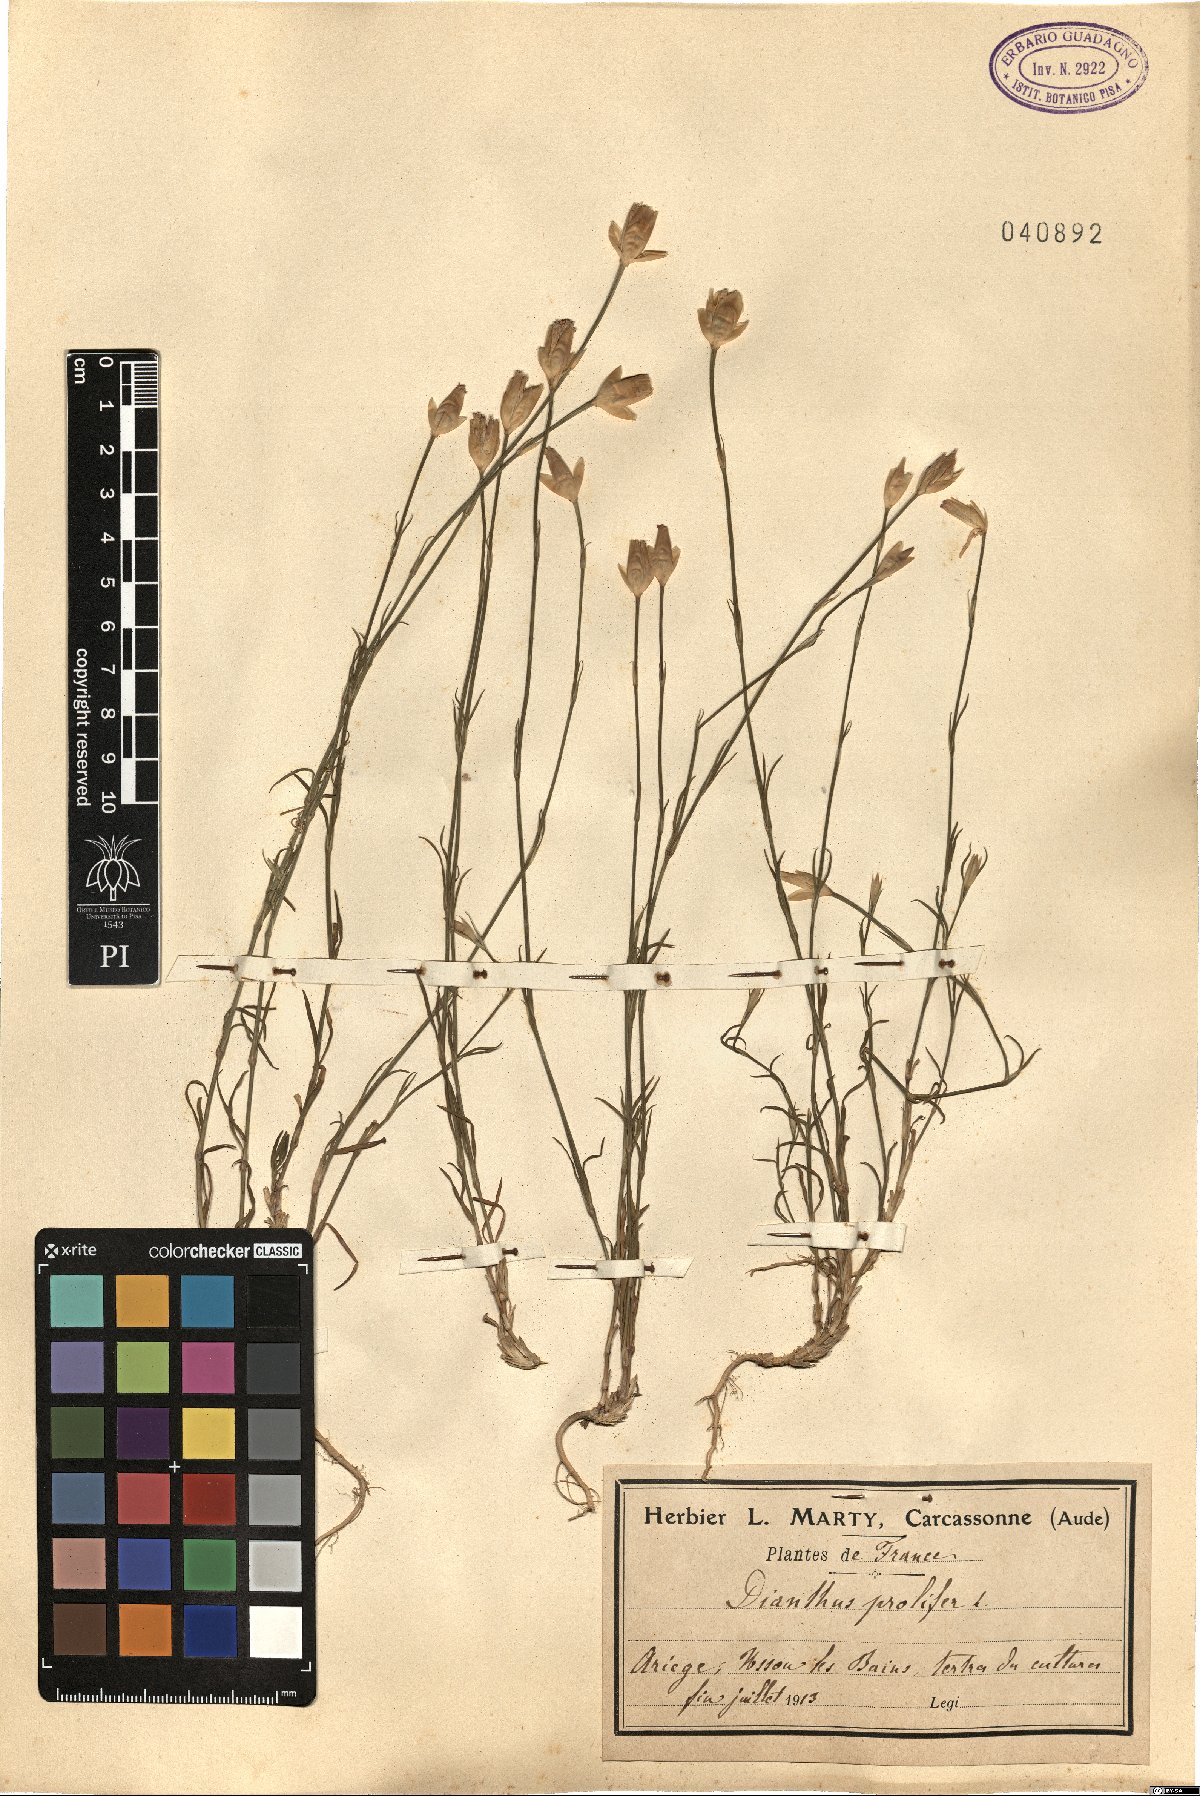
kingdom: Plantae
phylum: Tracheophyta
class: Magnoliopsida
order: Caryophyllales
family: Caryophyllaceae
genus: Petrorhagia
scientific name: Petrorhagia prolifera
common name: Proliferous pink
